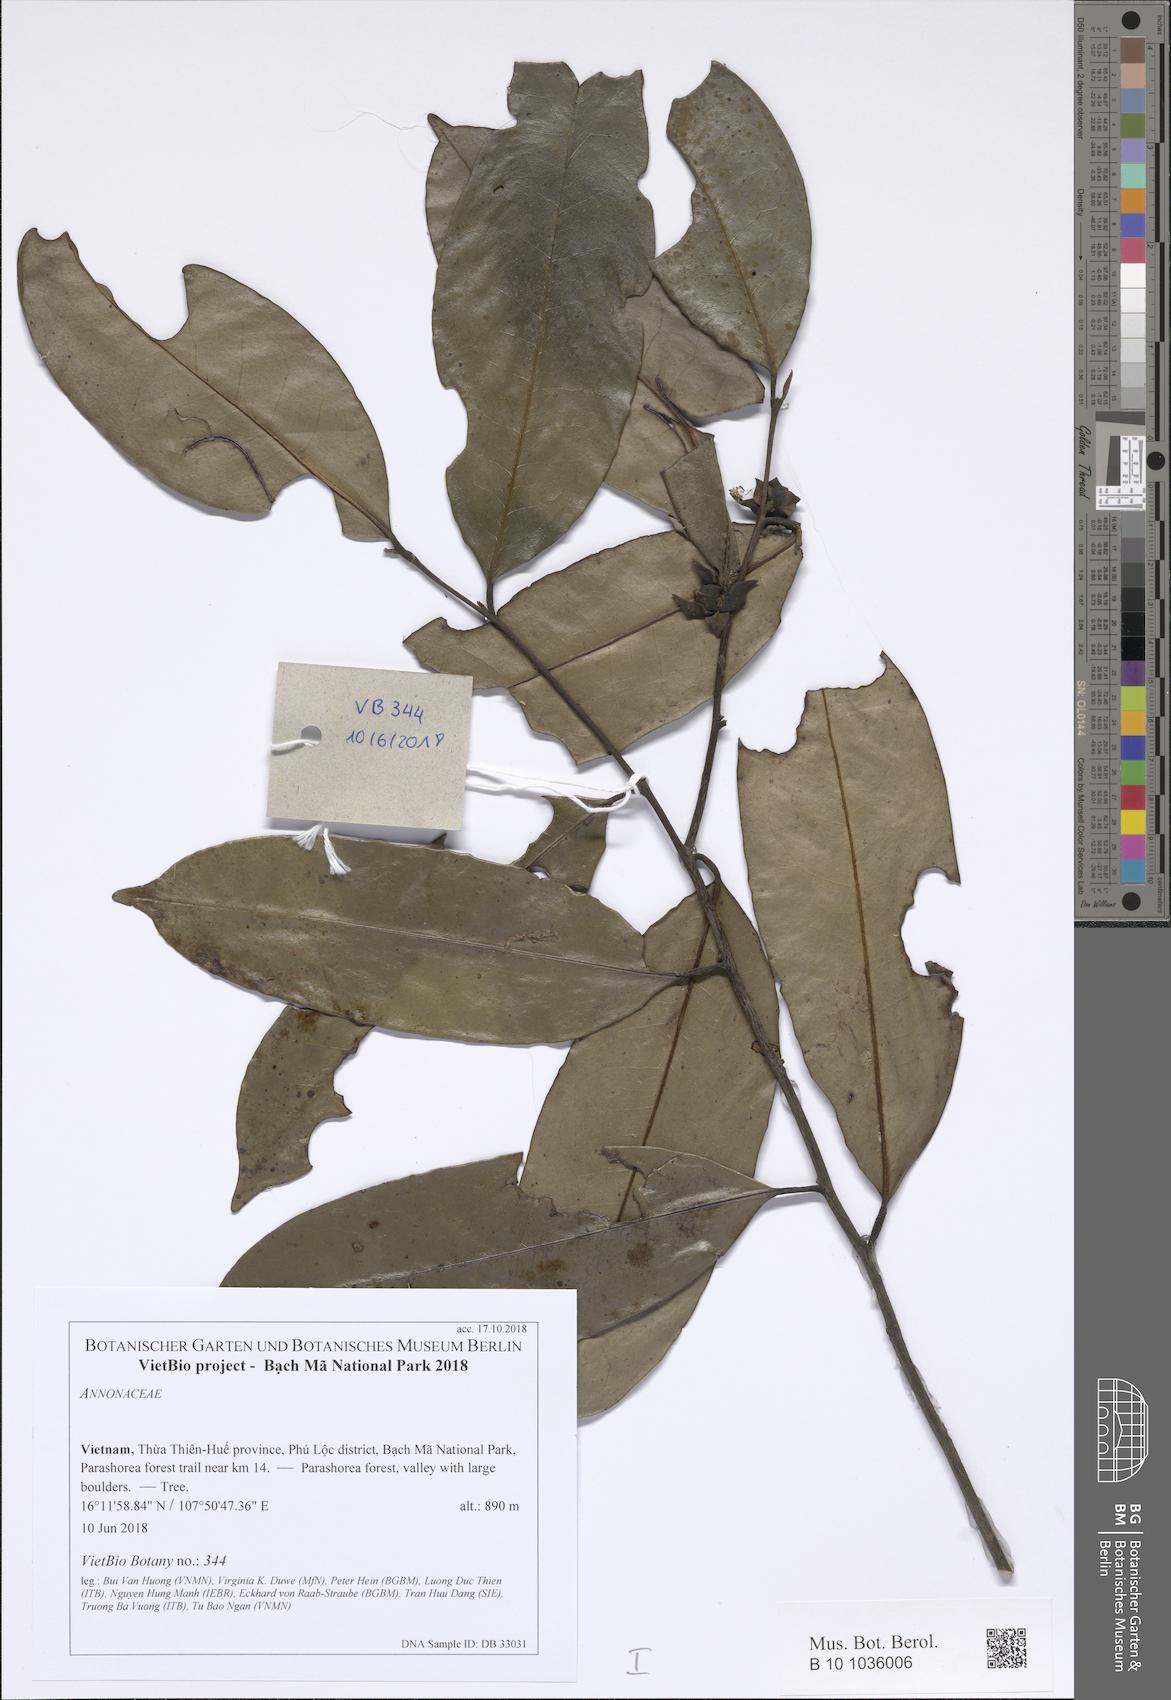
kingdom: Plantae
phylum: Tracheophyta
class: Magnoliopsida
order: Magnoliales
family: Annonaceae
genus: Sageraea
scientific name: Sageraea
